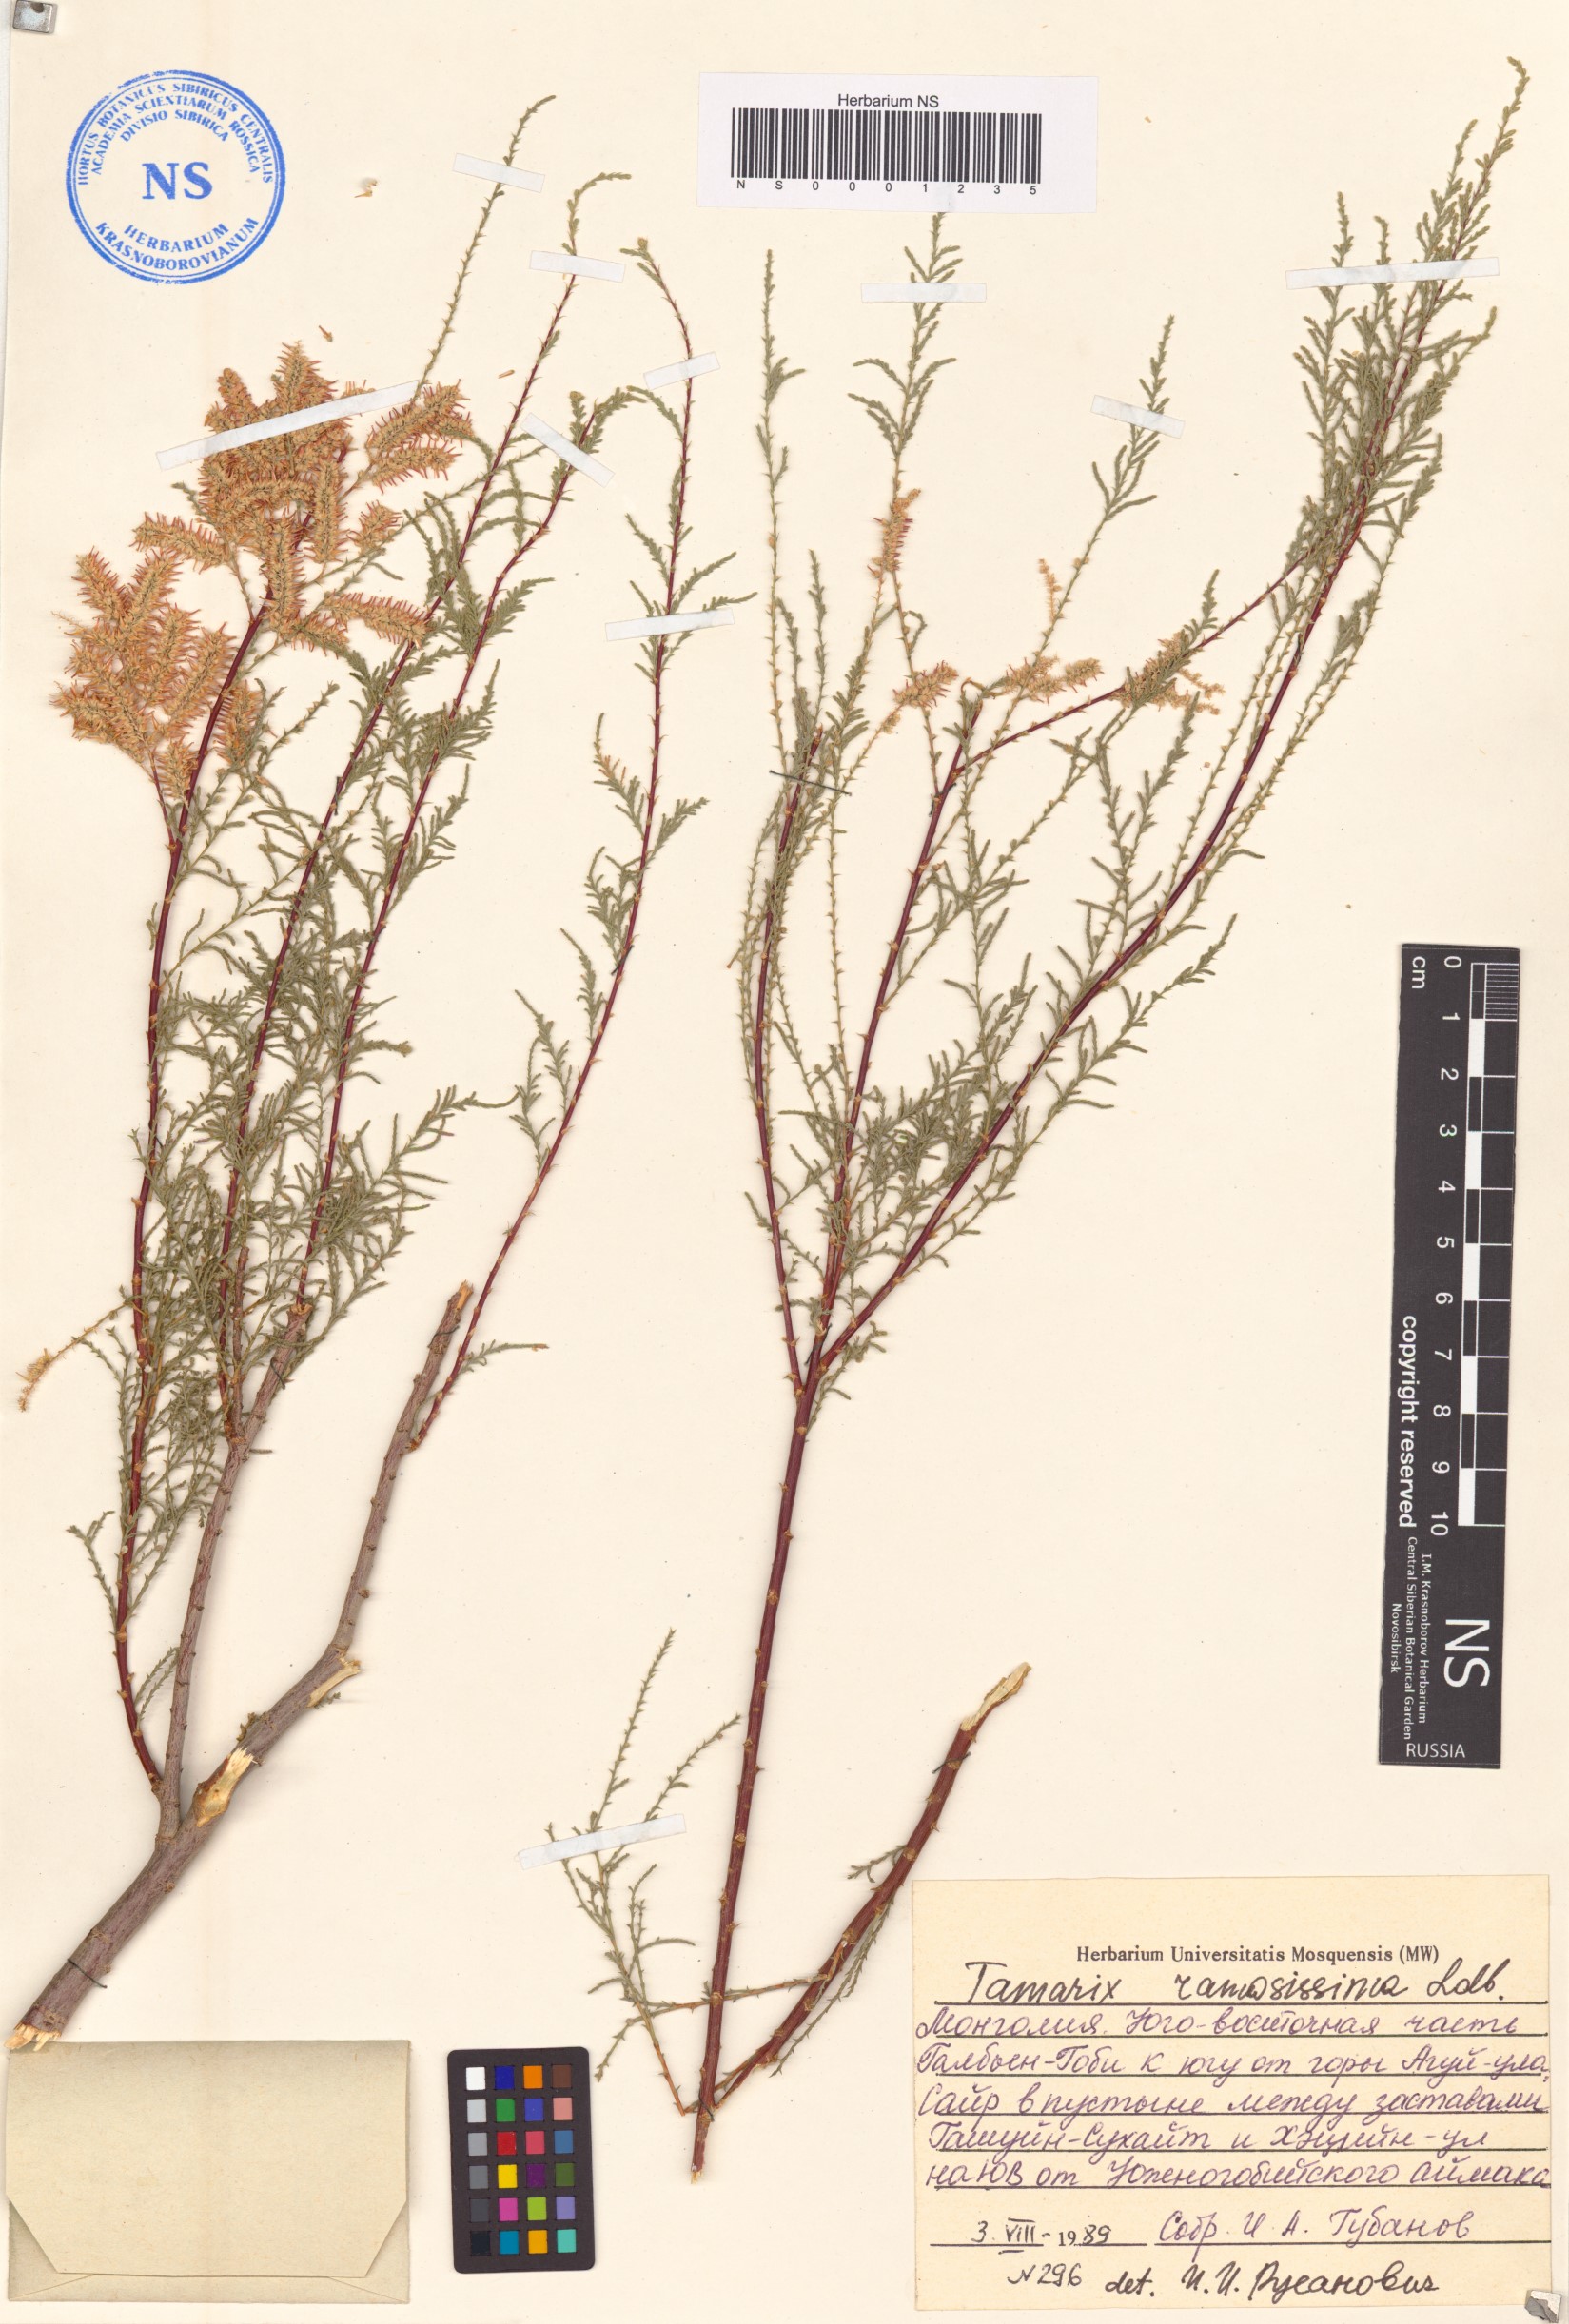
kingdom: Plantae
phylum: Tracheophyta
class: Magnoliopsida
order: Caryophyllales
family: Tamaricaceae
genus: Tamarix
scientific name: Tamarix ramosissima
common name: Pink tamarisk
